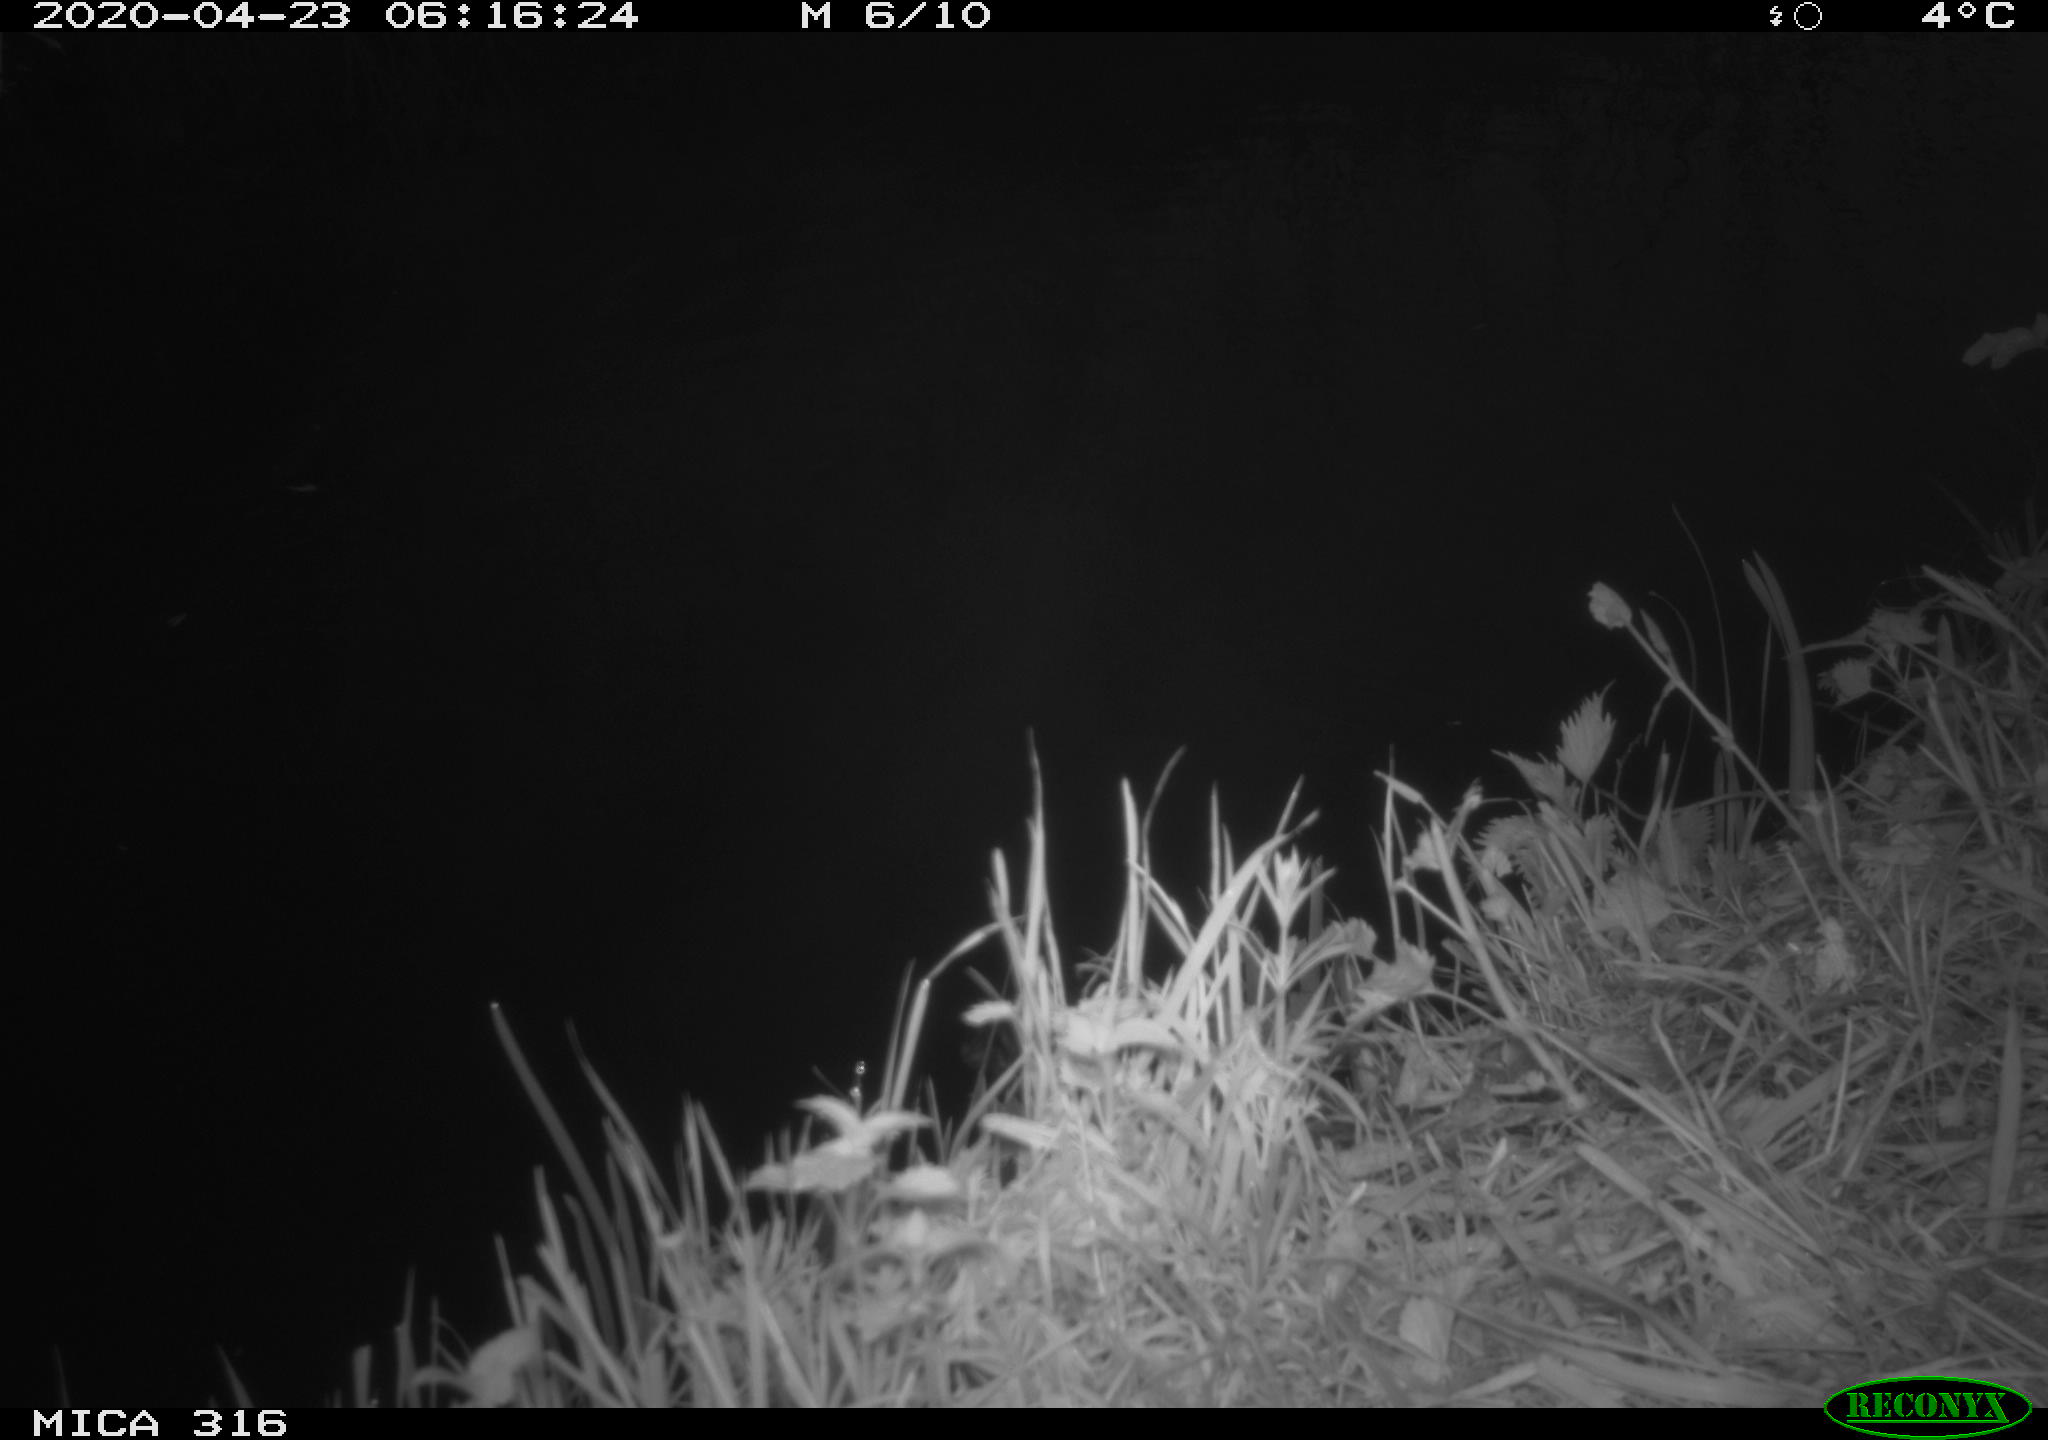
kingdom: Animalia
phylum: Chordata
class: Aves
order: Gruiformes
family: Rallidae
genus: Gallinula
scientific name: Gallinula chloropus
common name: Common moorhen
